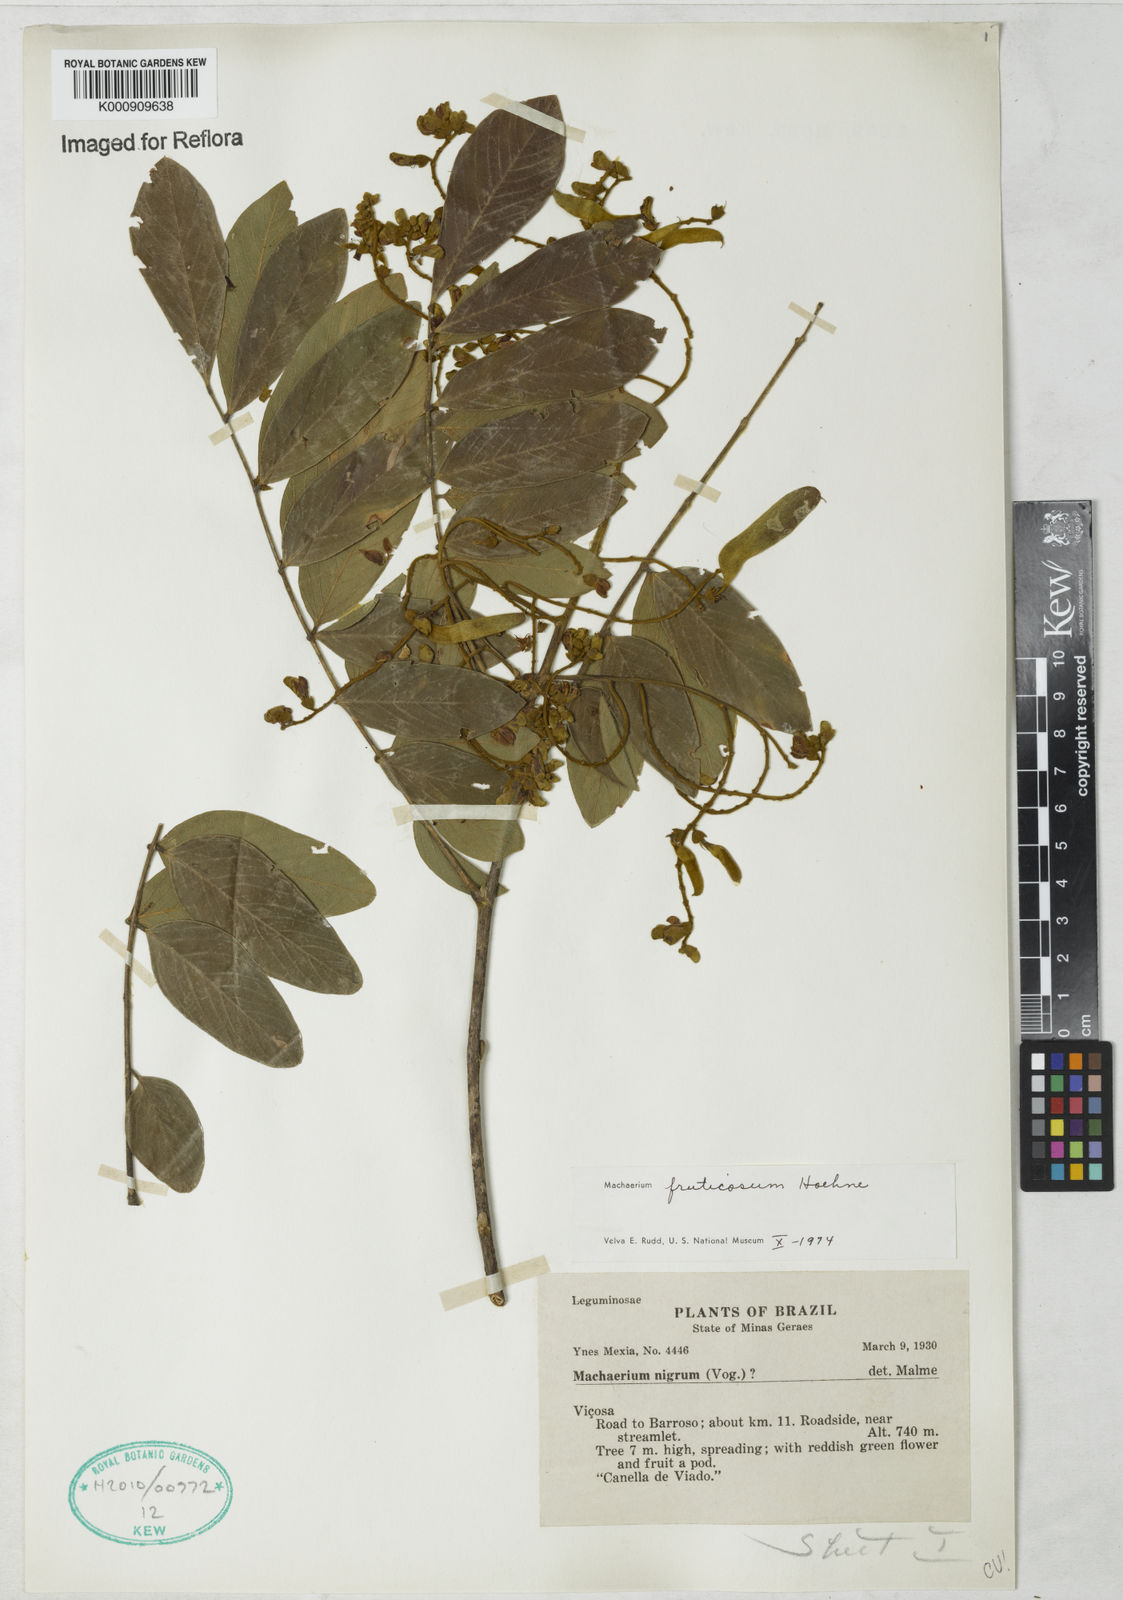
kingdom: Plantae
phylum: Tracheophyta
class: Magnoliopsida
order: Fabales
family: Fabaceae
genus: Machaerium
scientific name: Machaerium nigrum
